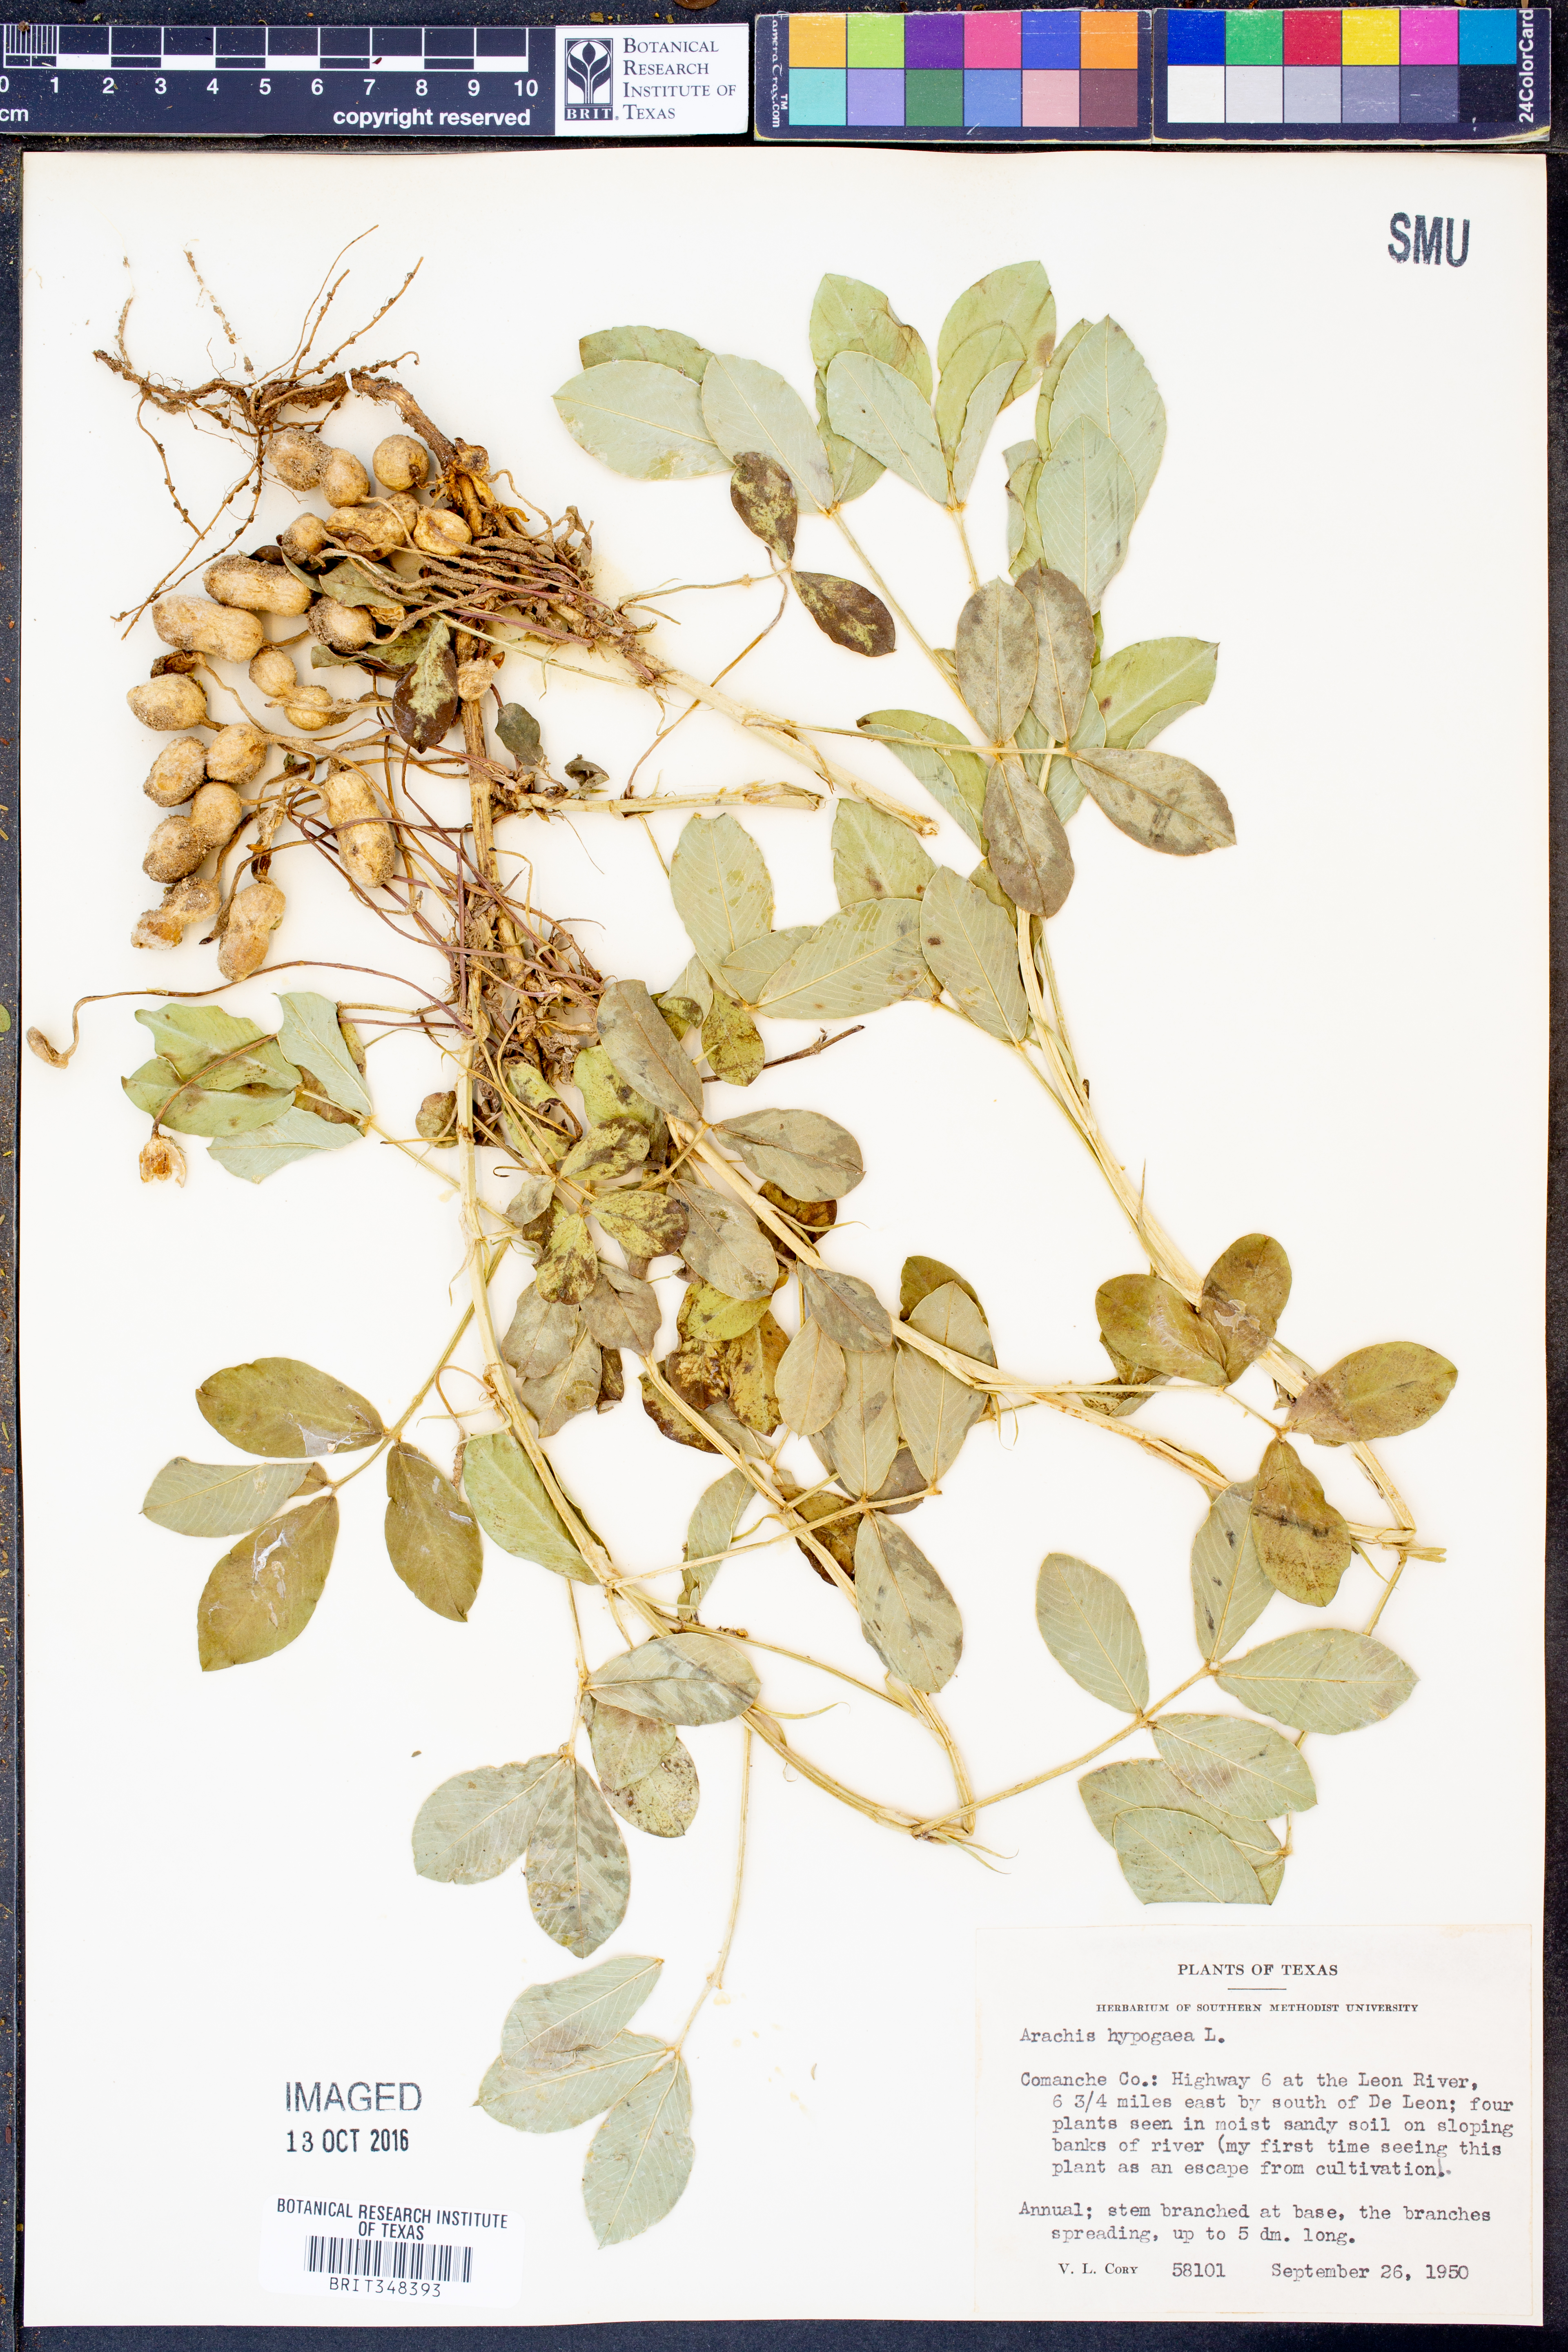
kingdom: Plantae
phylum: Tracheophyta
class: Magnoliopsida
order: Fabales
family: Fabaceae
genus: Arachis
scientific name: Arachis hypogaea
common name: Peanut
